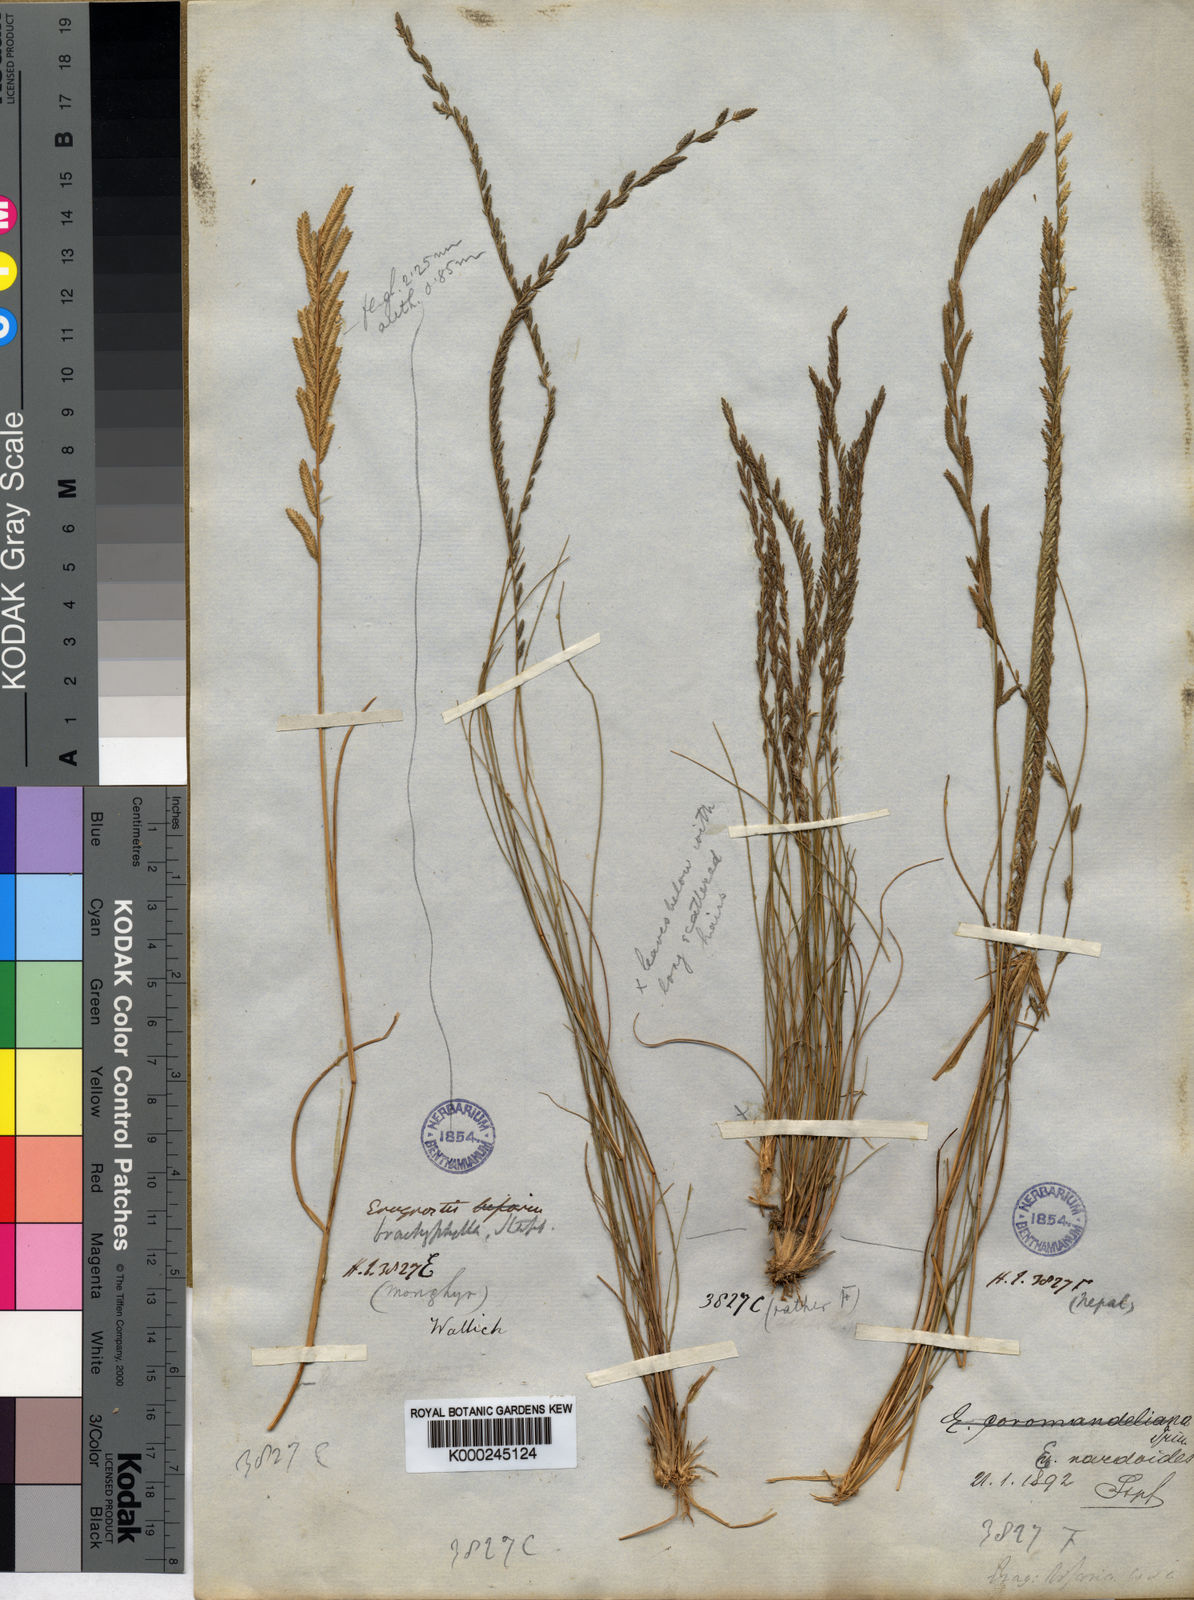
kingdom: Plantae
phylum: Tracheophyta
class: Liliopsida
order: Poales
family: Poaceae
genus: Eragrostiella
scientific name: Eragrostiella nardoides
